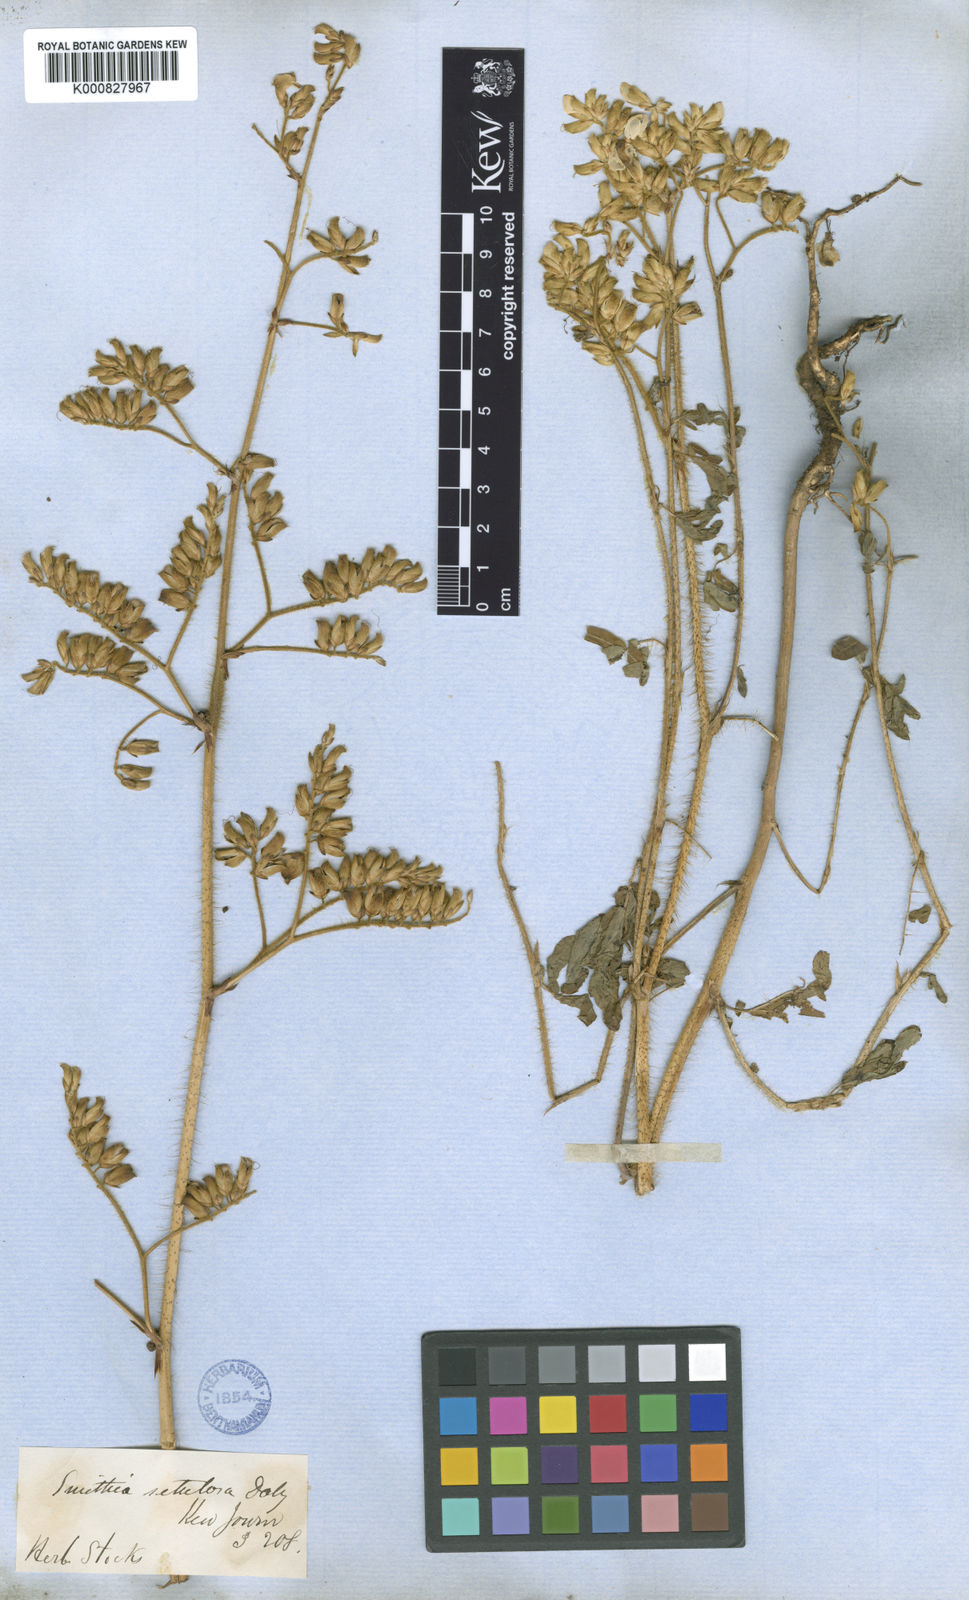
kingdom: Plantae
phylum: Tracheophyta
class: Magnoliopsida
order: Fabales
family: Fabaceae
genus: Smithia
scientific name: Smithia setulosa
